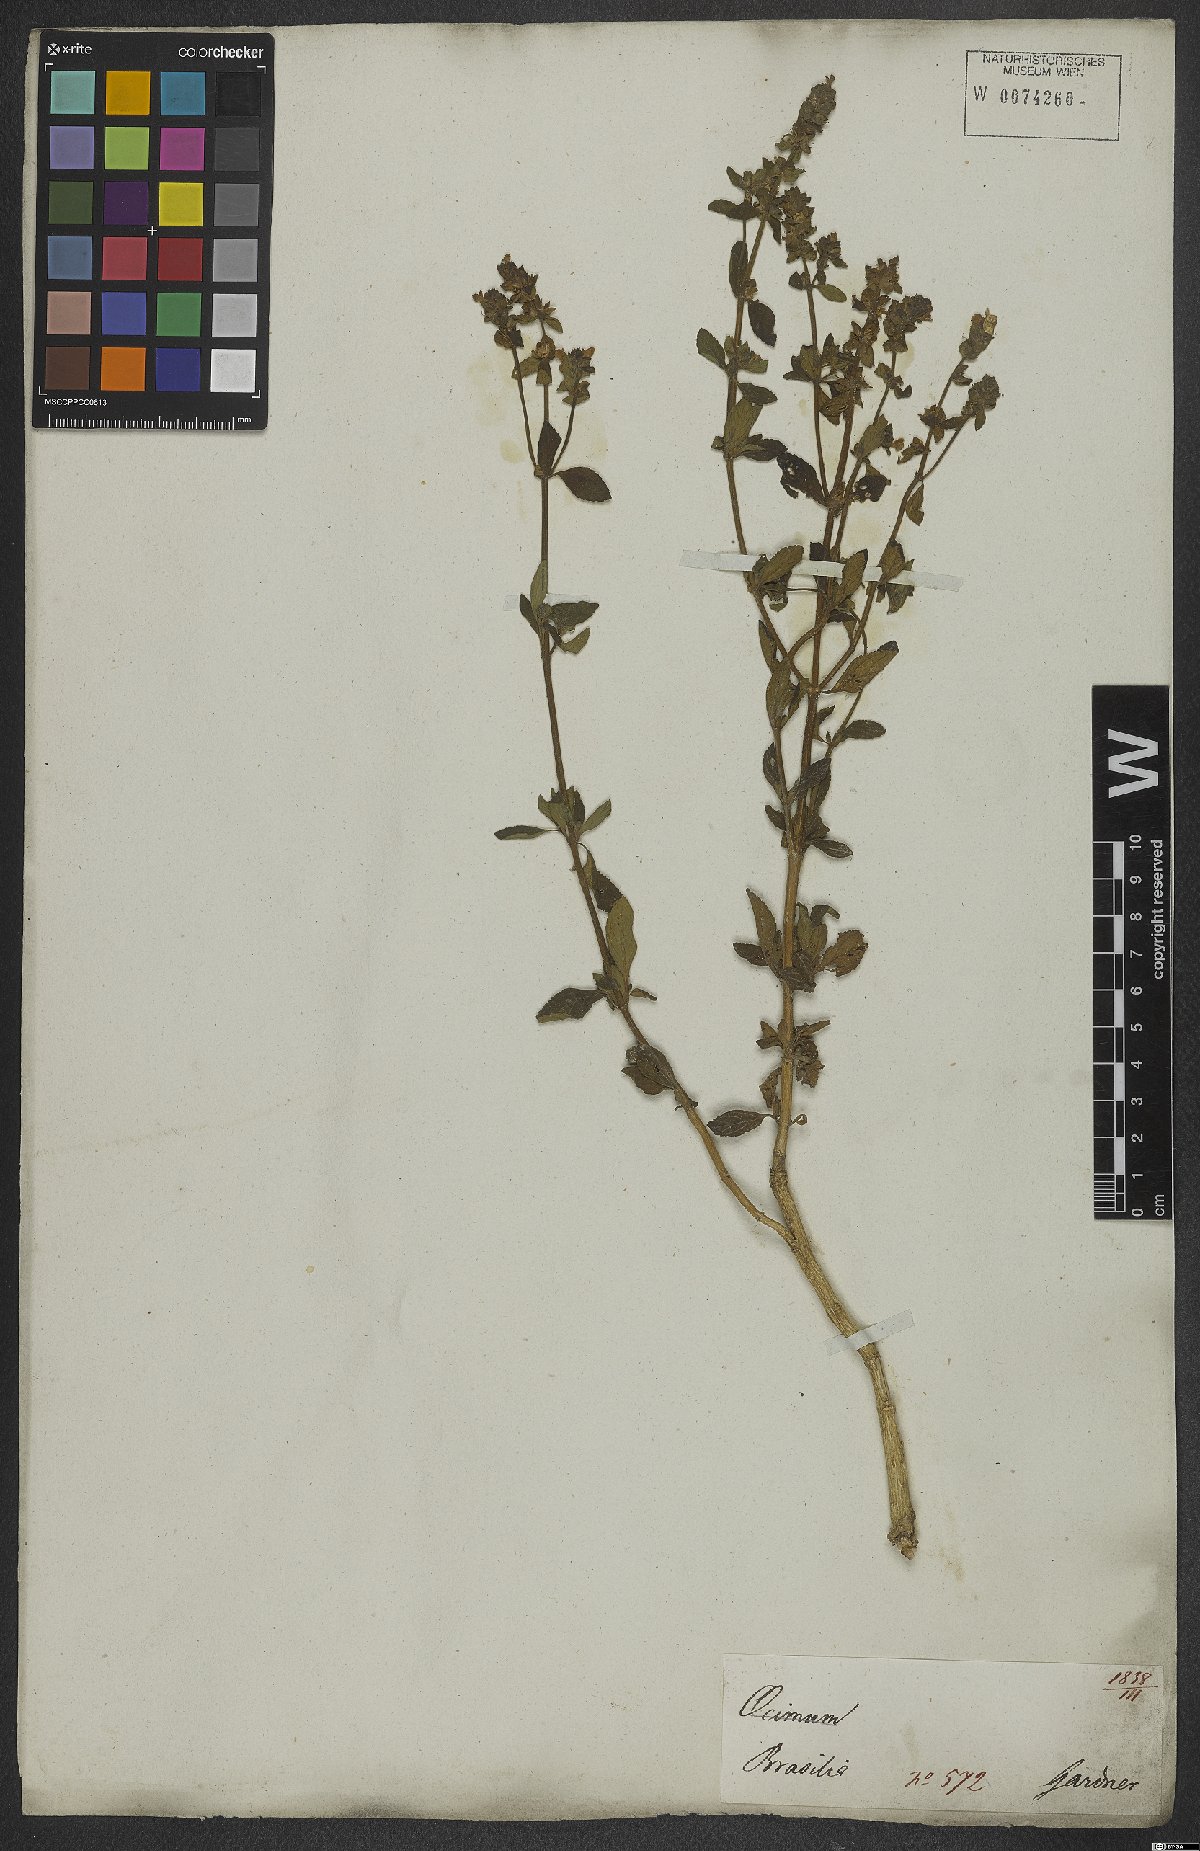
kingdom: Plantae
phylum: Tracheophyta
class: Magnoliopsida
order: Lamiales
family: Plantaginaceae
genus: Matourea
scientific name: Matourea
